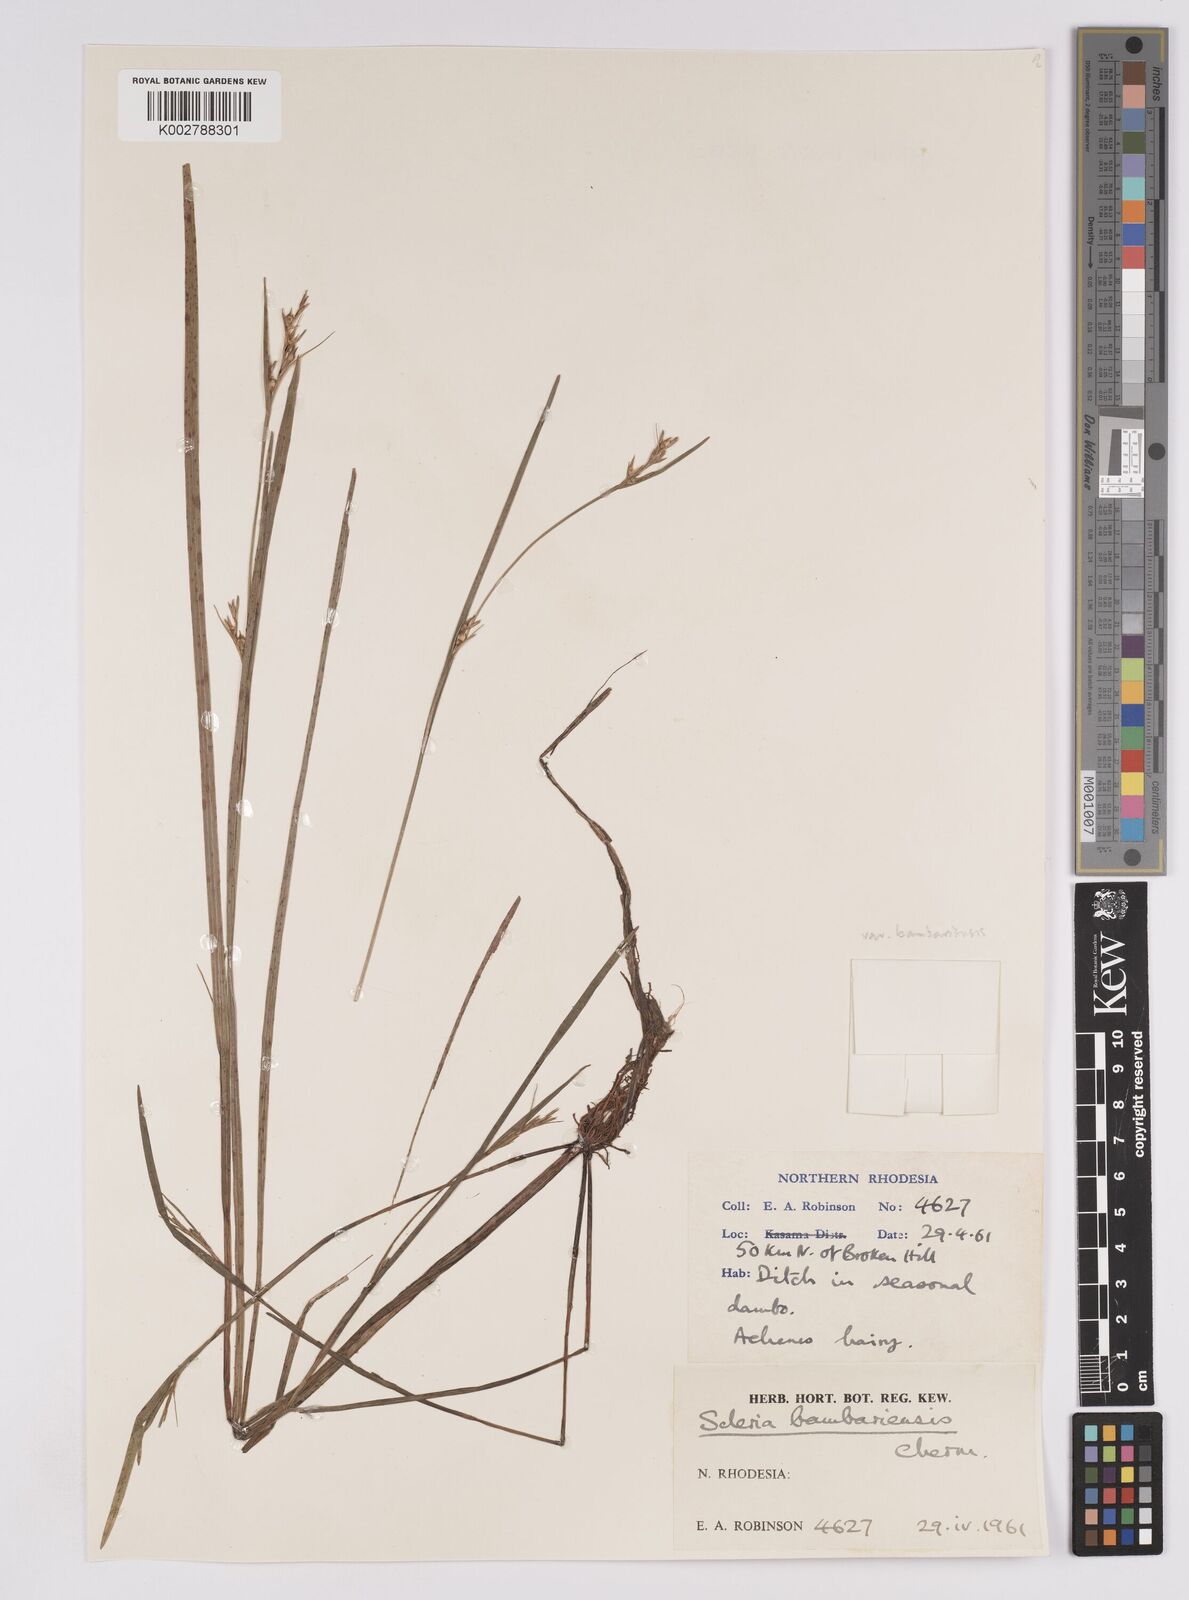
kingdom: Plantae
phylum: Tracheophyta
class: Liliopsida
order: Poales
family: Cyperaceae
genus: Scleria
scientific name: Scleria bambariensis
